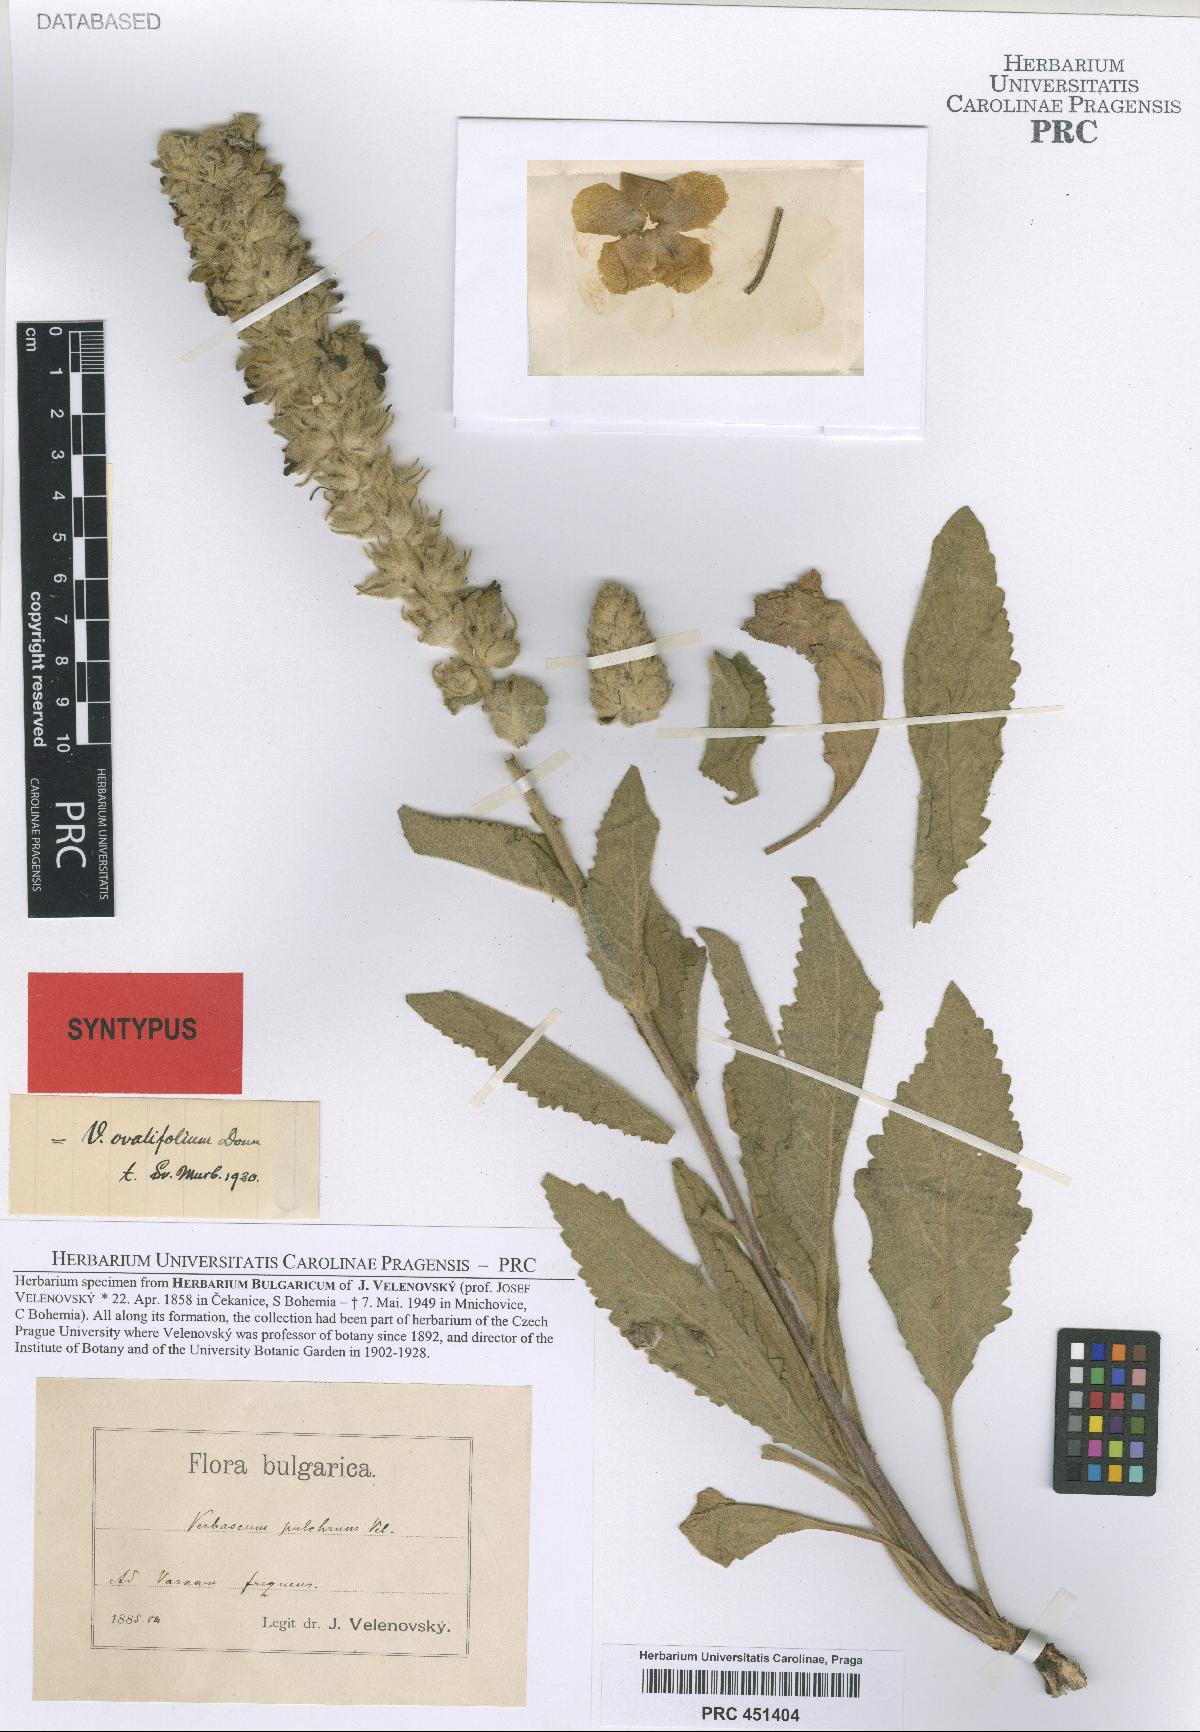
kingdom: Plantae
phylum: Tracheophyta
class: Magnoliopsida
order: Lamiales
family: Scrophulariaceae
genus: Verbascum
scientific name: Verbascum ovalifolium
